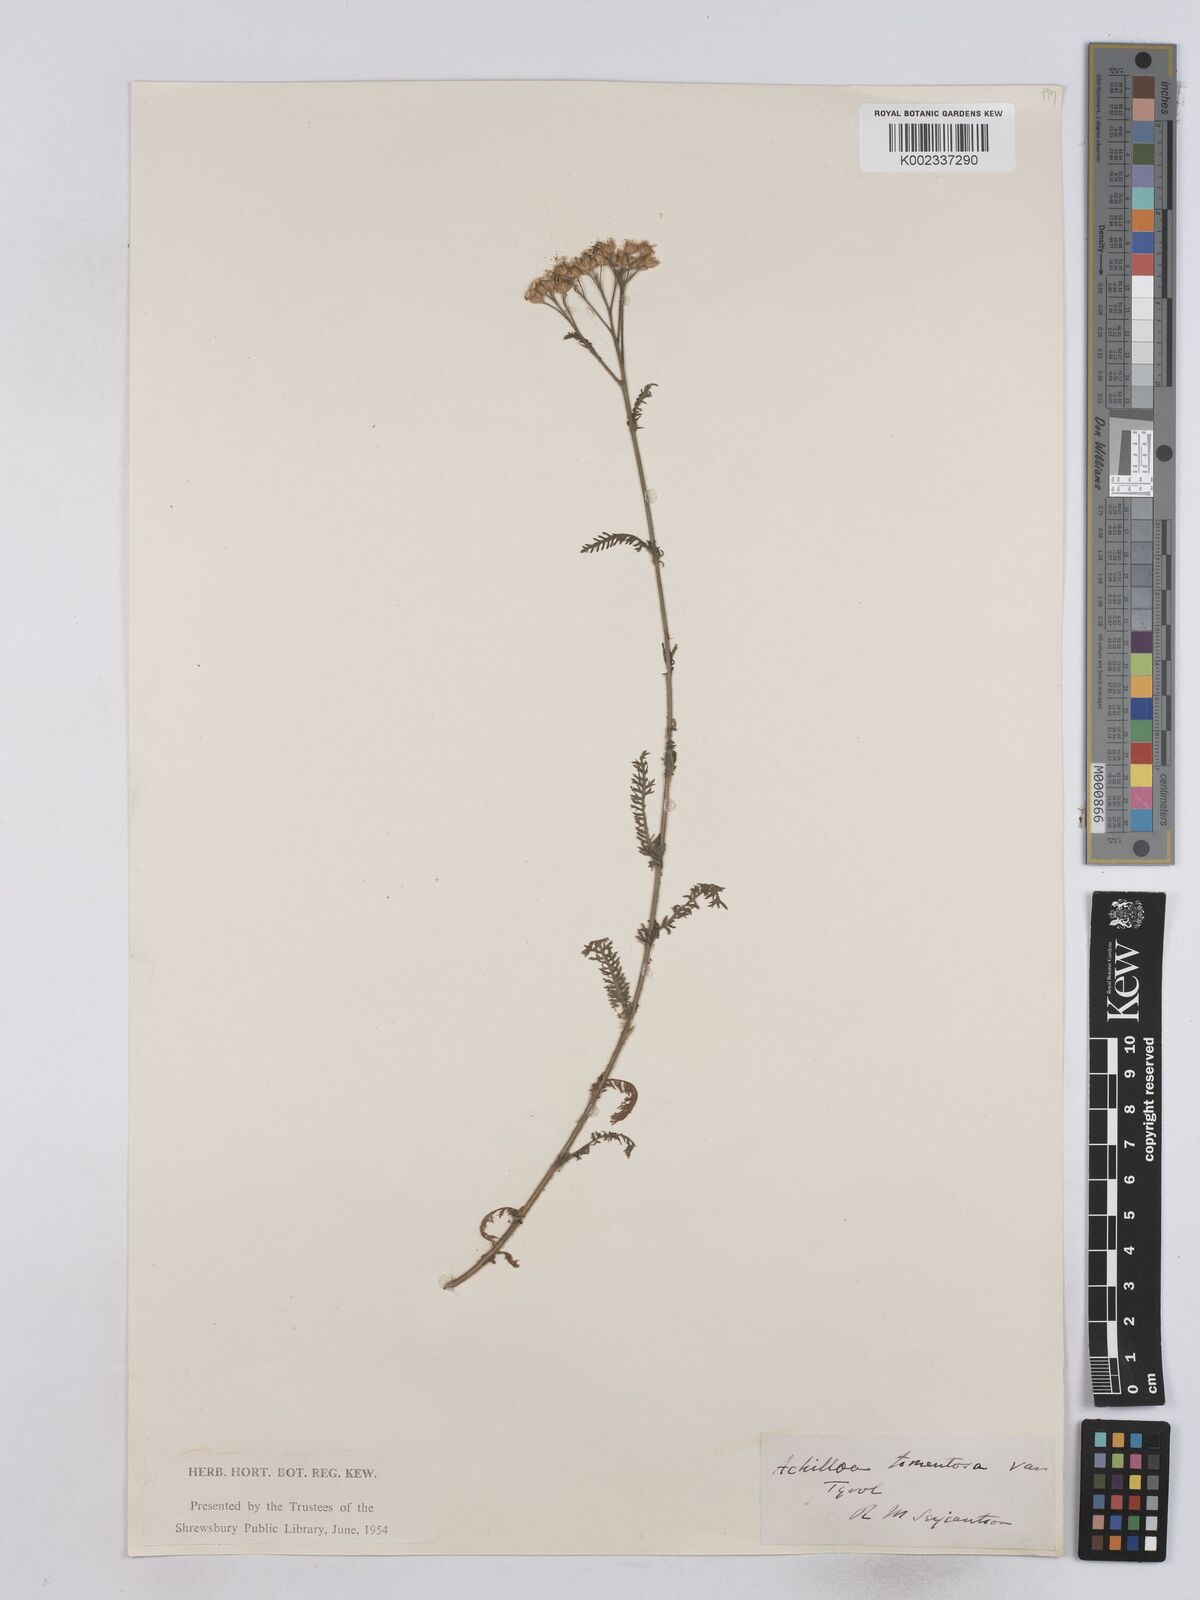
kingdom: Plantae
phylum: Tracheophyta
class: Magnoliopsida
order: Asterales
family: Asteraceae
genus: Achillea
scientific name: Achillea tomentosa
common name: Yellow milfoil
